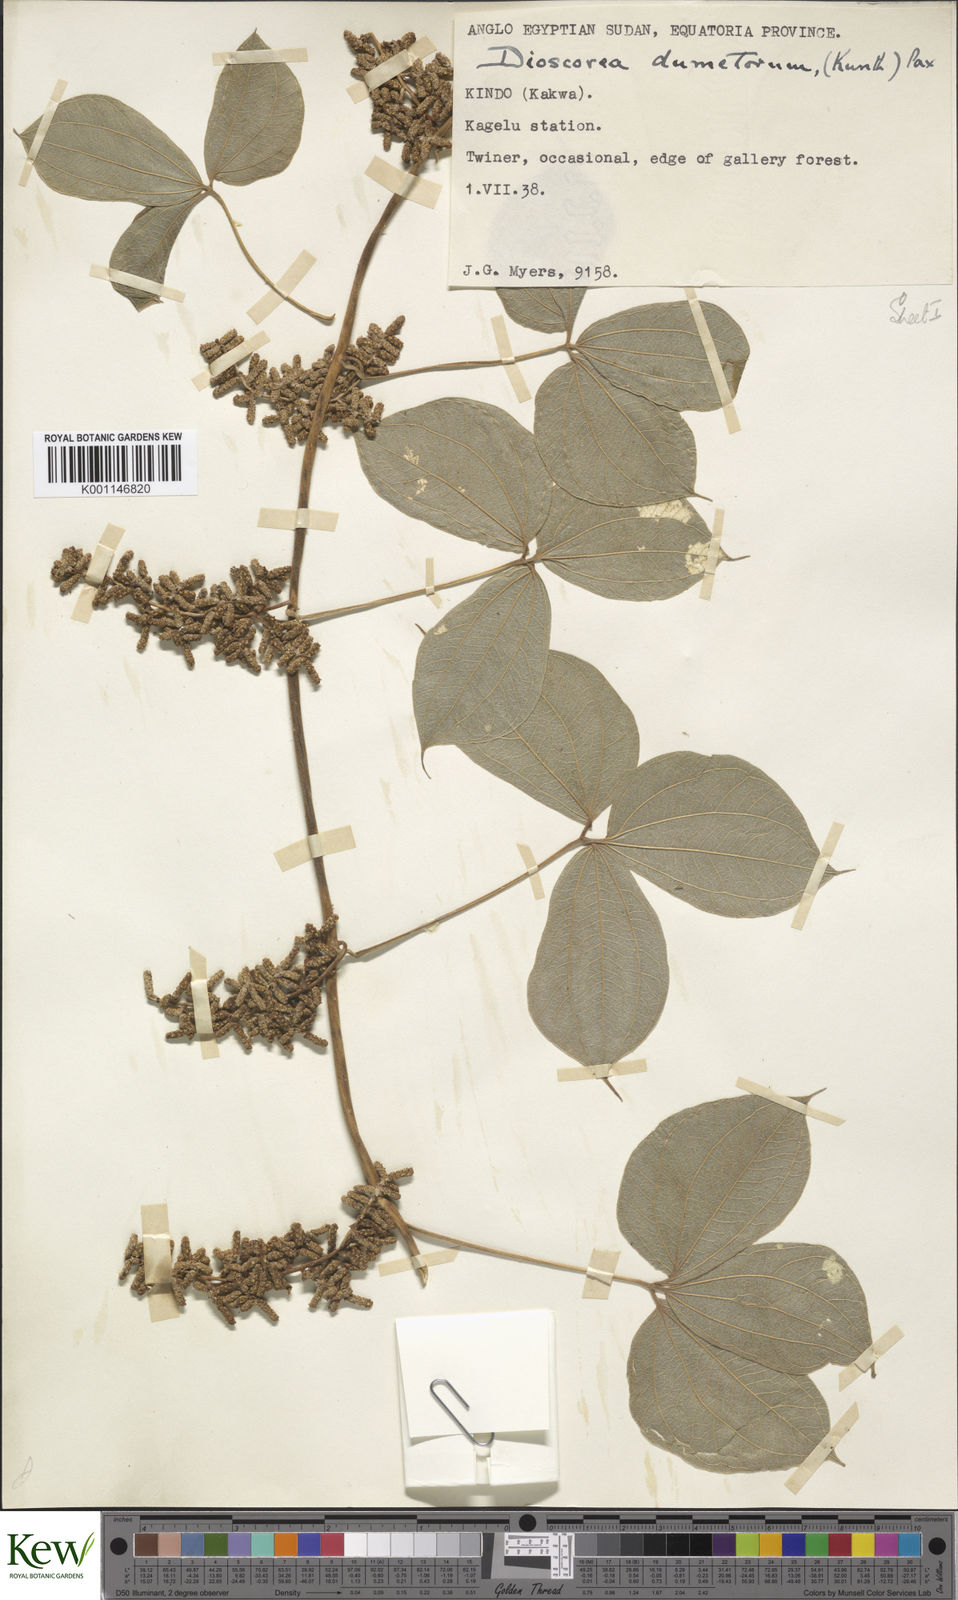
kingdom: Plantae
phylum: Tracheophyta
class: Liliopsida
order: Dioscoreales
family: Dioscoreaceae
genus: Dioscorea
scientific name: Dioscorea dumetorum
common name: African bitter yam
